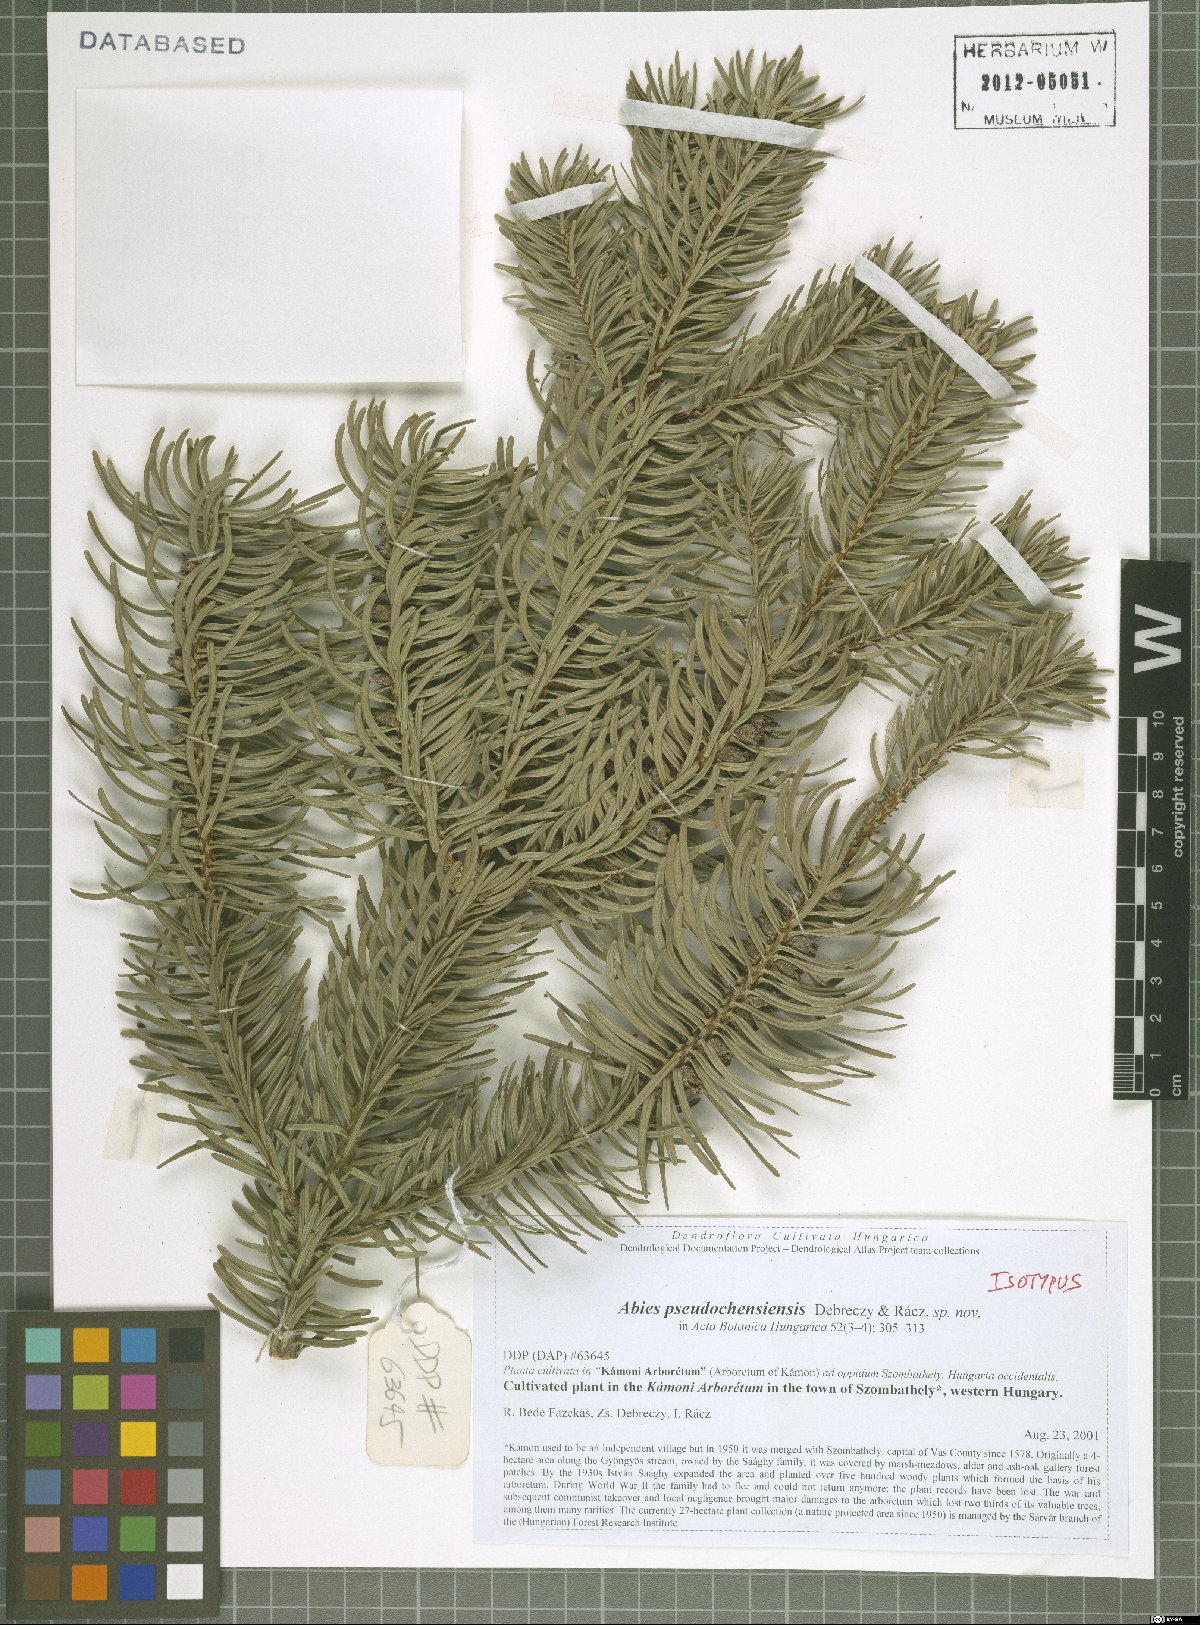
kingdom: Plantae
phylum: Tracheophyta
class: Pinopsida
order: Pinales
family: Pinaceae
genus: Abies
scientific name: Abies pindrow
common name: Pindrow fir
